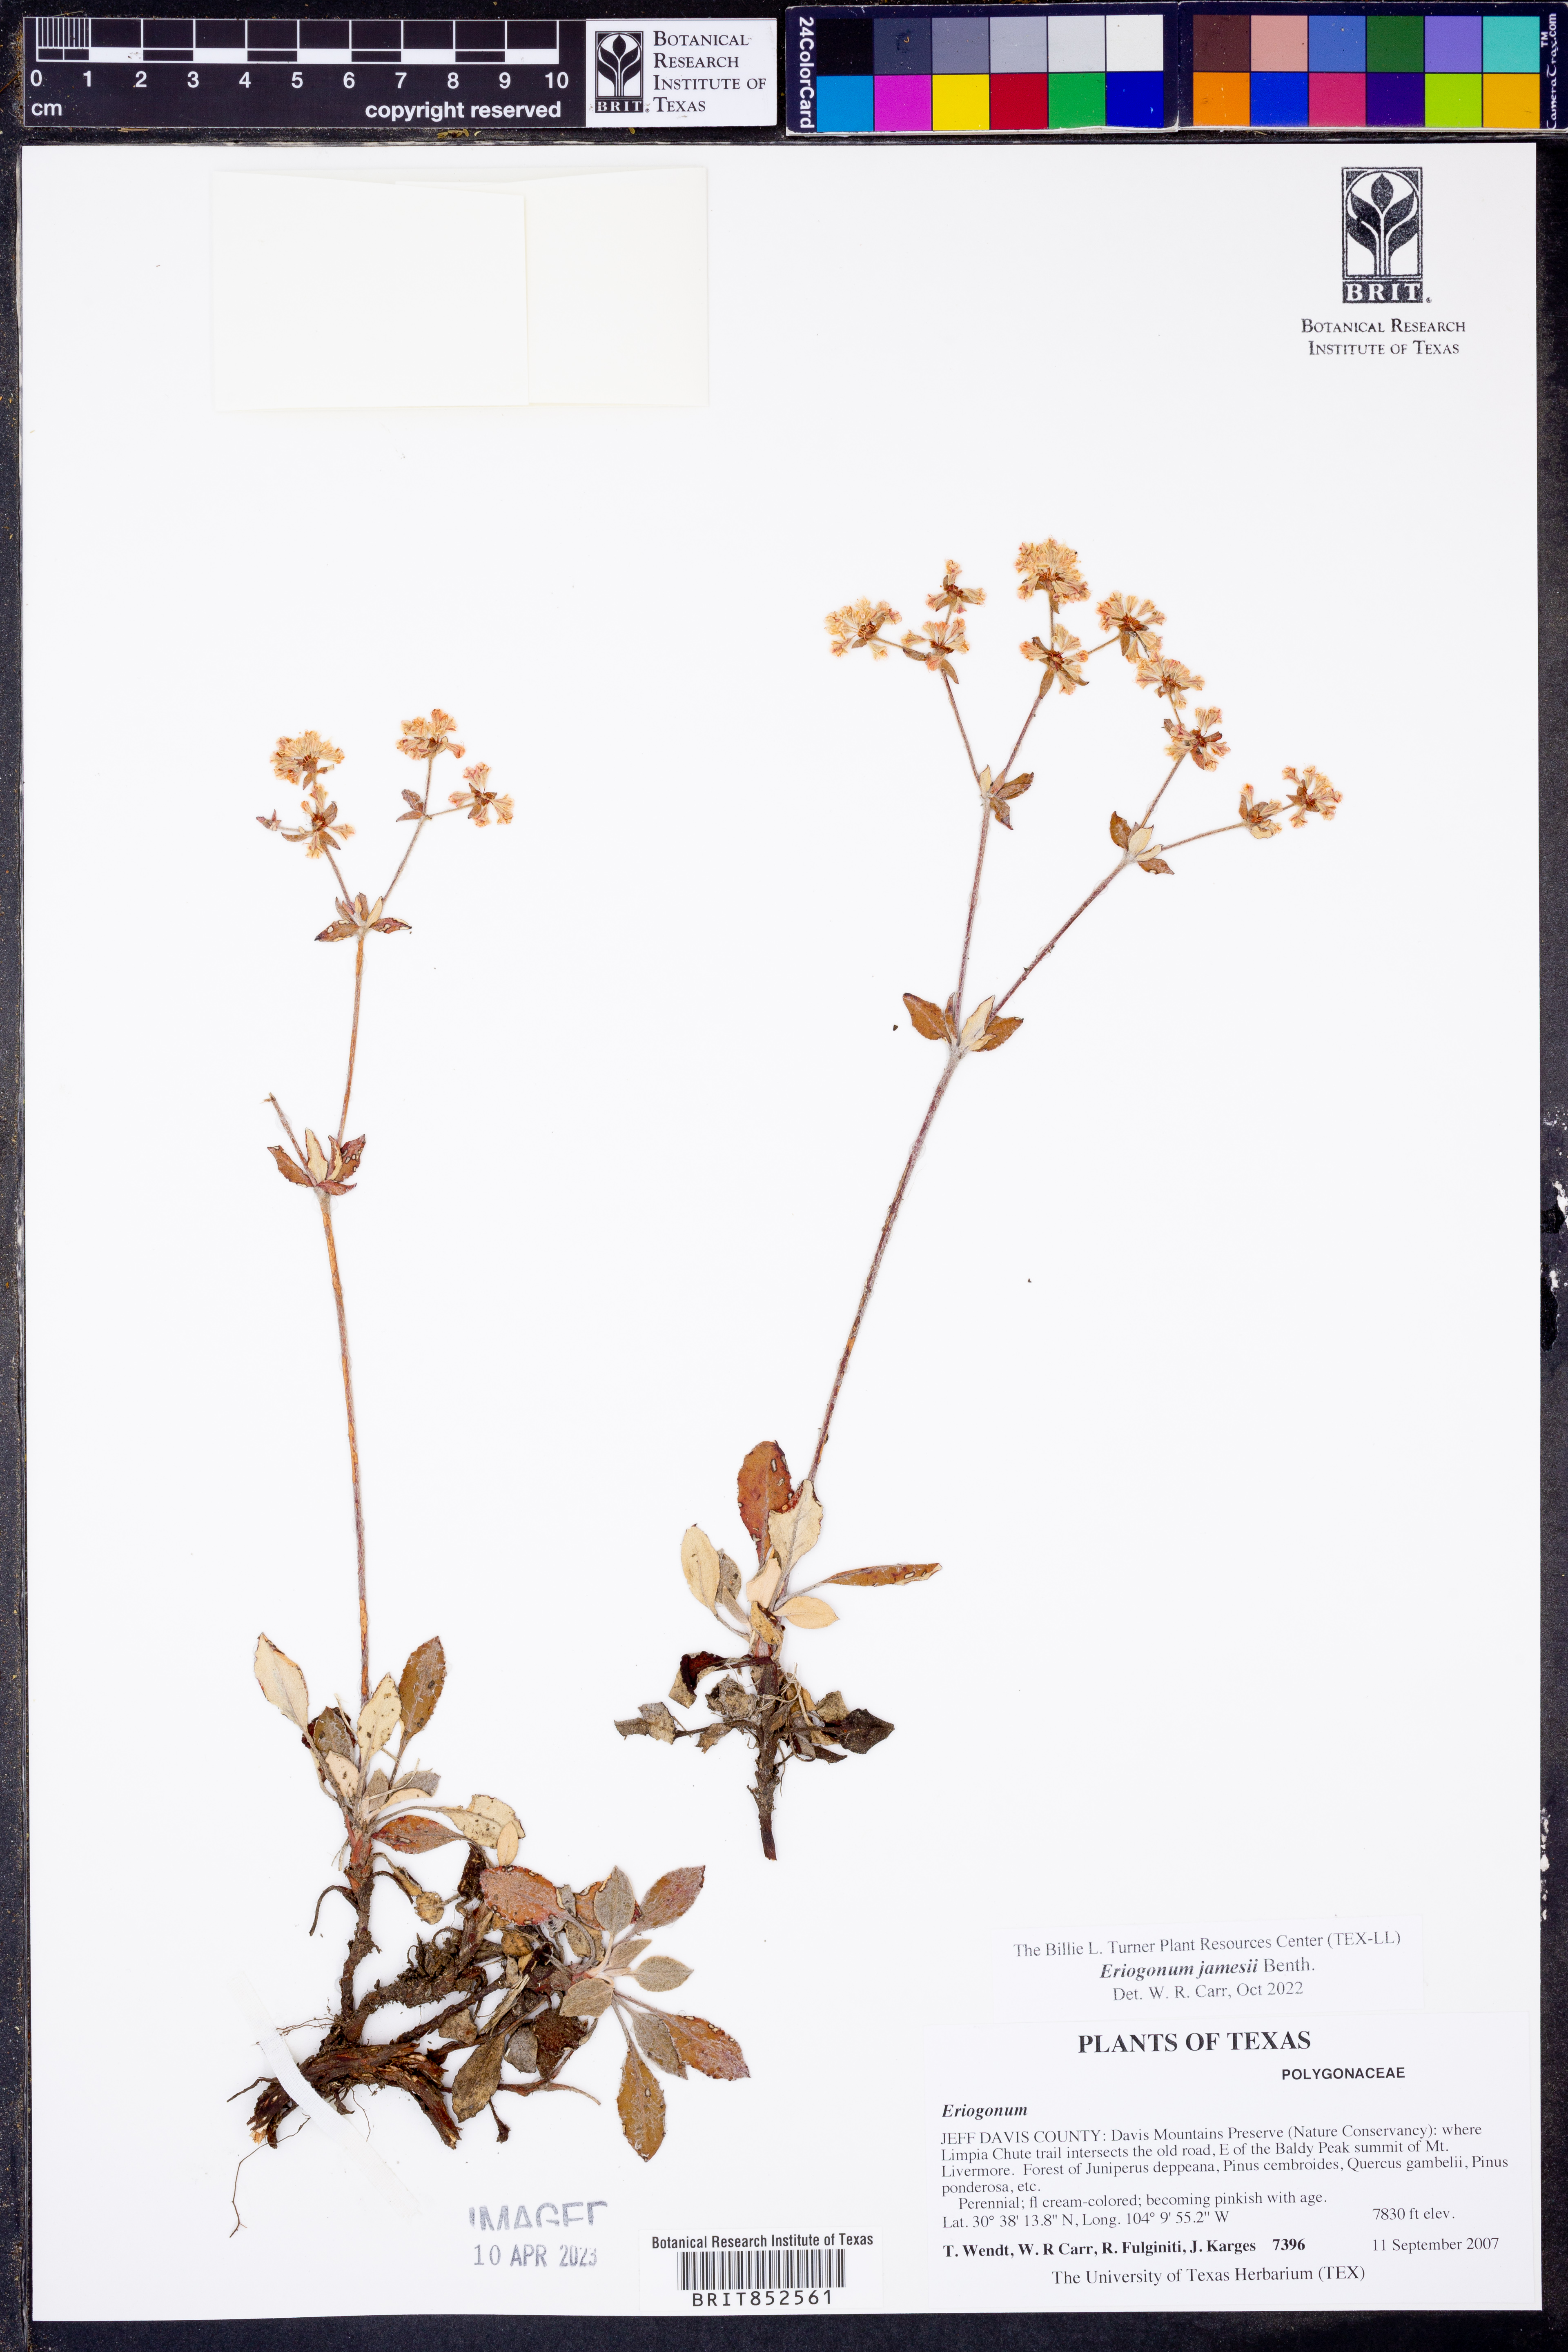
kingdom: Plantae
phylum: Tracheophyta
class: Magnoliopsida
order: Caryophyllales
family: Polygonaceae
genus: Eriogonum
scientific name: Eriogonum jamesii
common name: Antelope-sage
